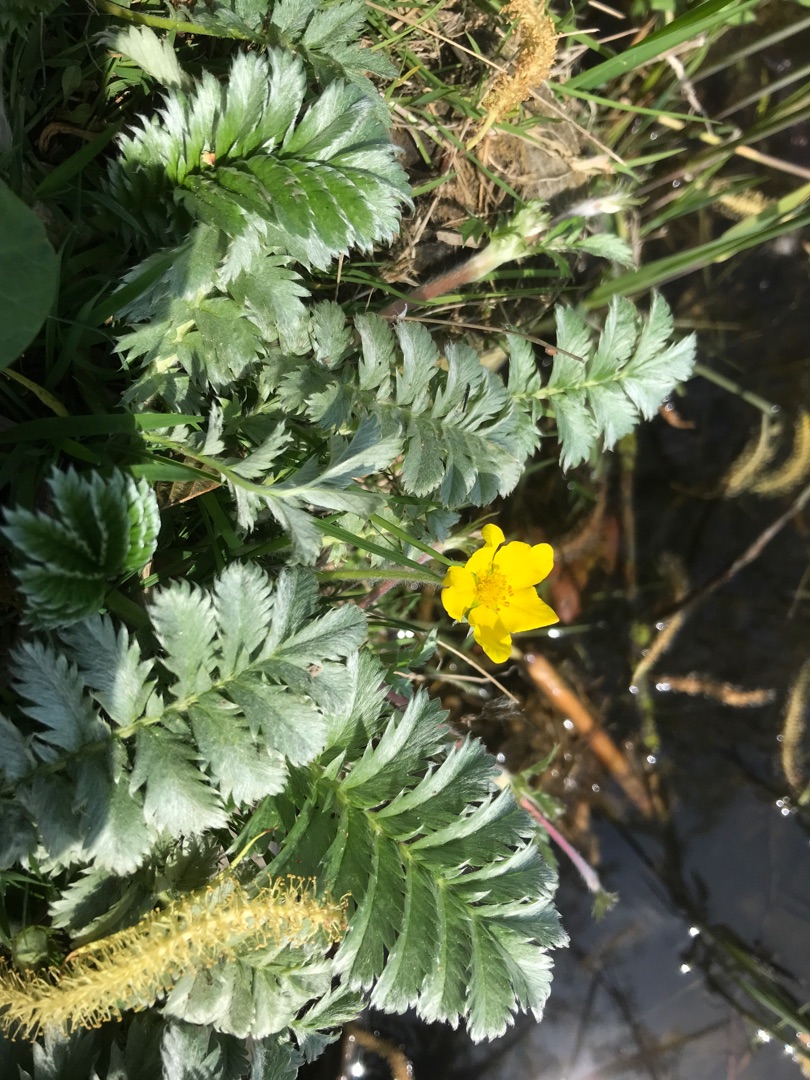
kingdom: Plantae
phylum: Tracheophyta
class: Magnoliopsida
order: Rosales
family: Rosaceae
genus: Argentina
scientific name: Argentina anserina
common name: Gåsepotentil
